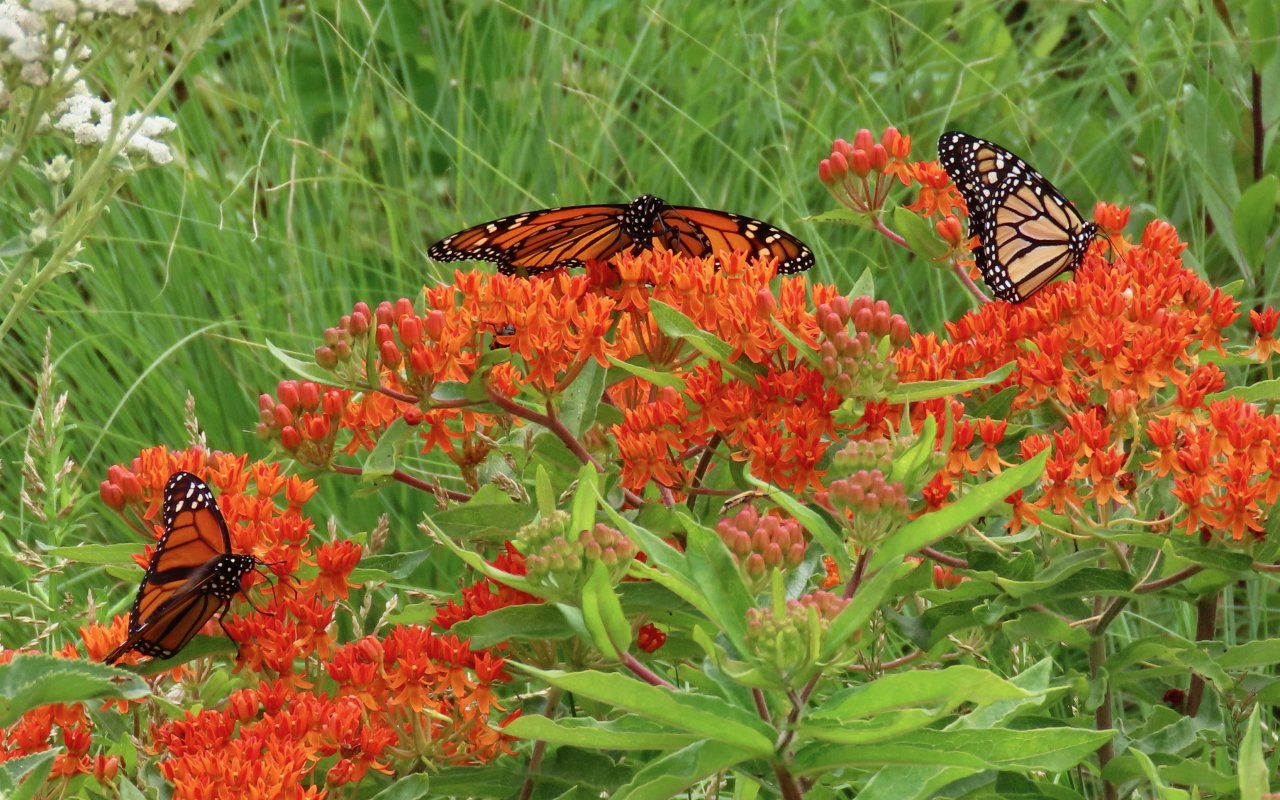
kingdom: Animalia
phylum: Arthropoda
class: Insecta
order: Lepidoptera
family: Nymphalidae
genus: Danaus
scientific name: Danaus plexippus
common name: Monarch
